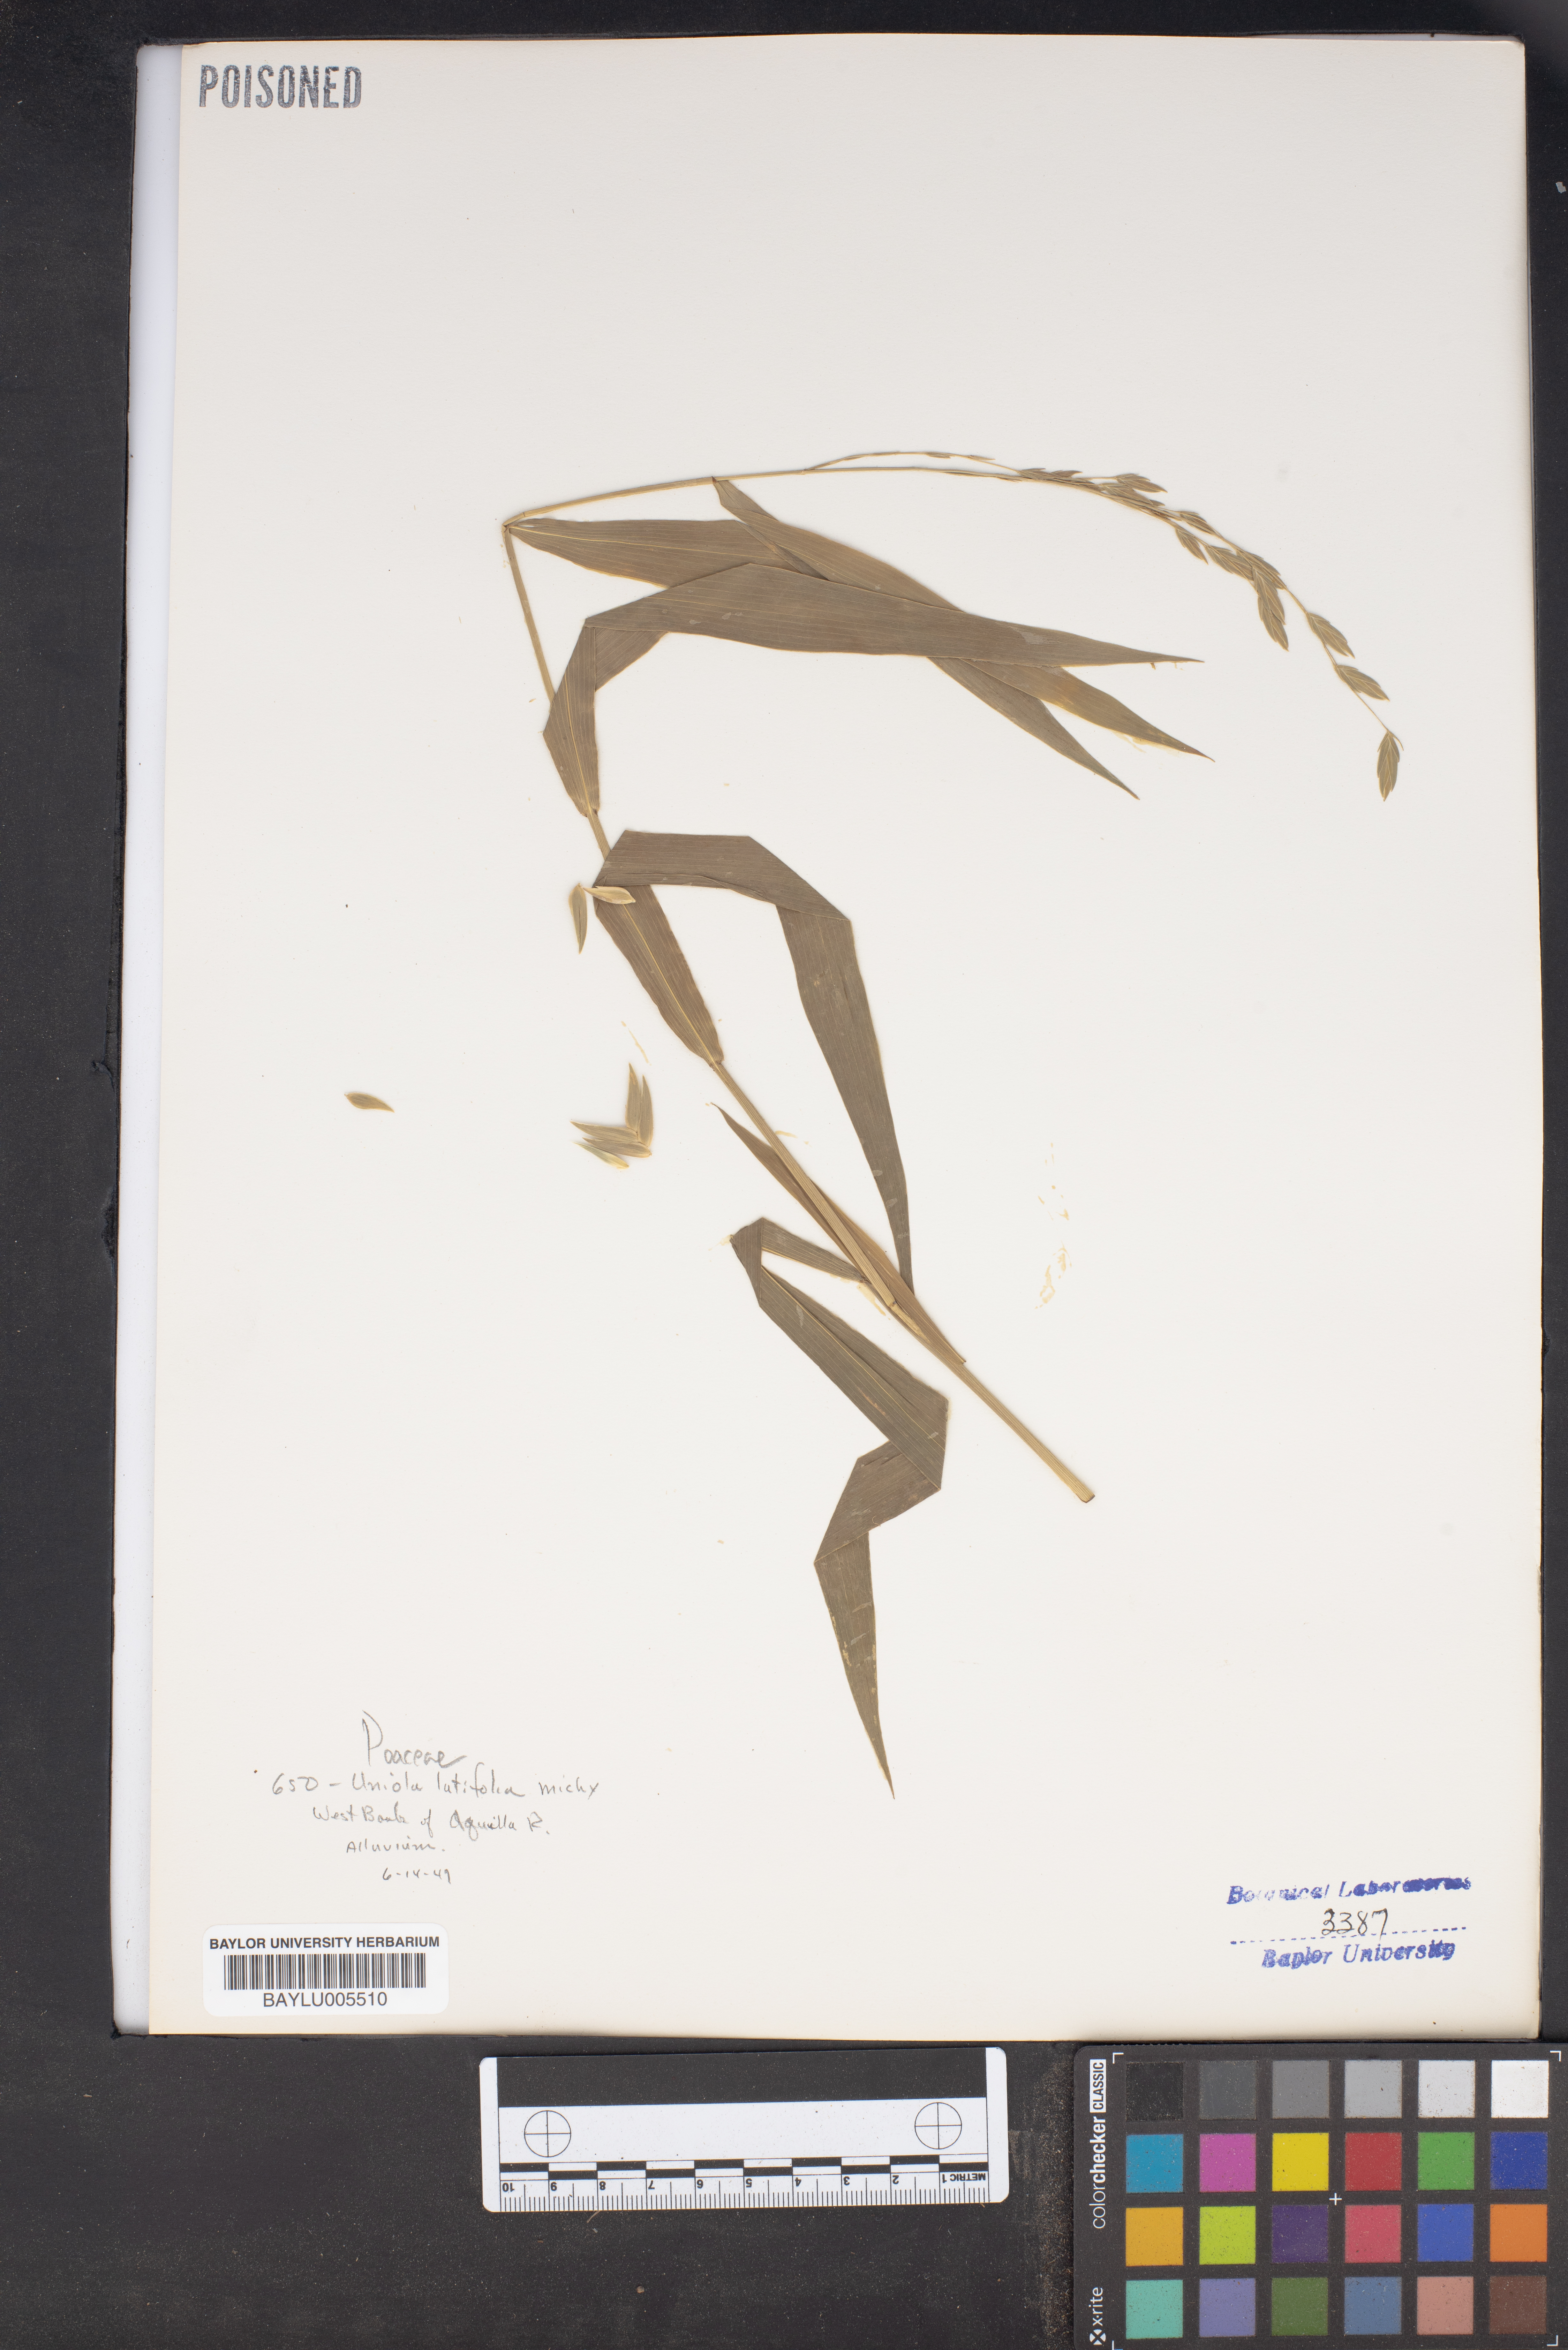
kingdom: Plantae
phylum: Tracheophyta
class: Liliopsida
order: Poales
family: Poaceae
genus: Chasmanthium
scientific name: Chasmanthium latifolium
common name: Broad-leaved chasmanthium
